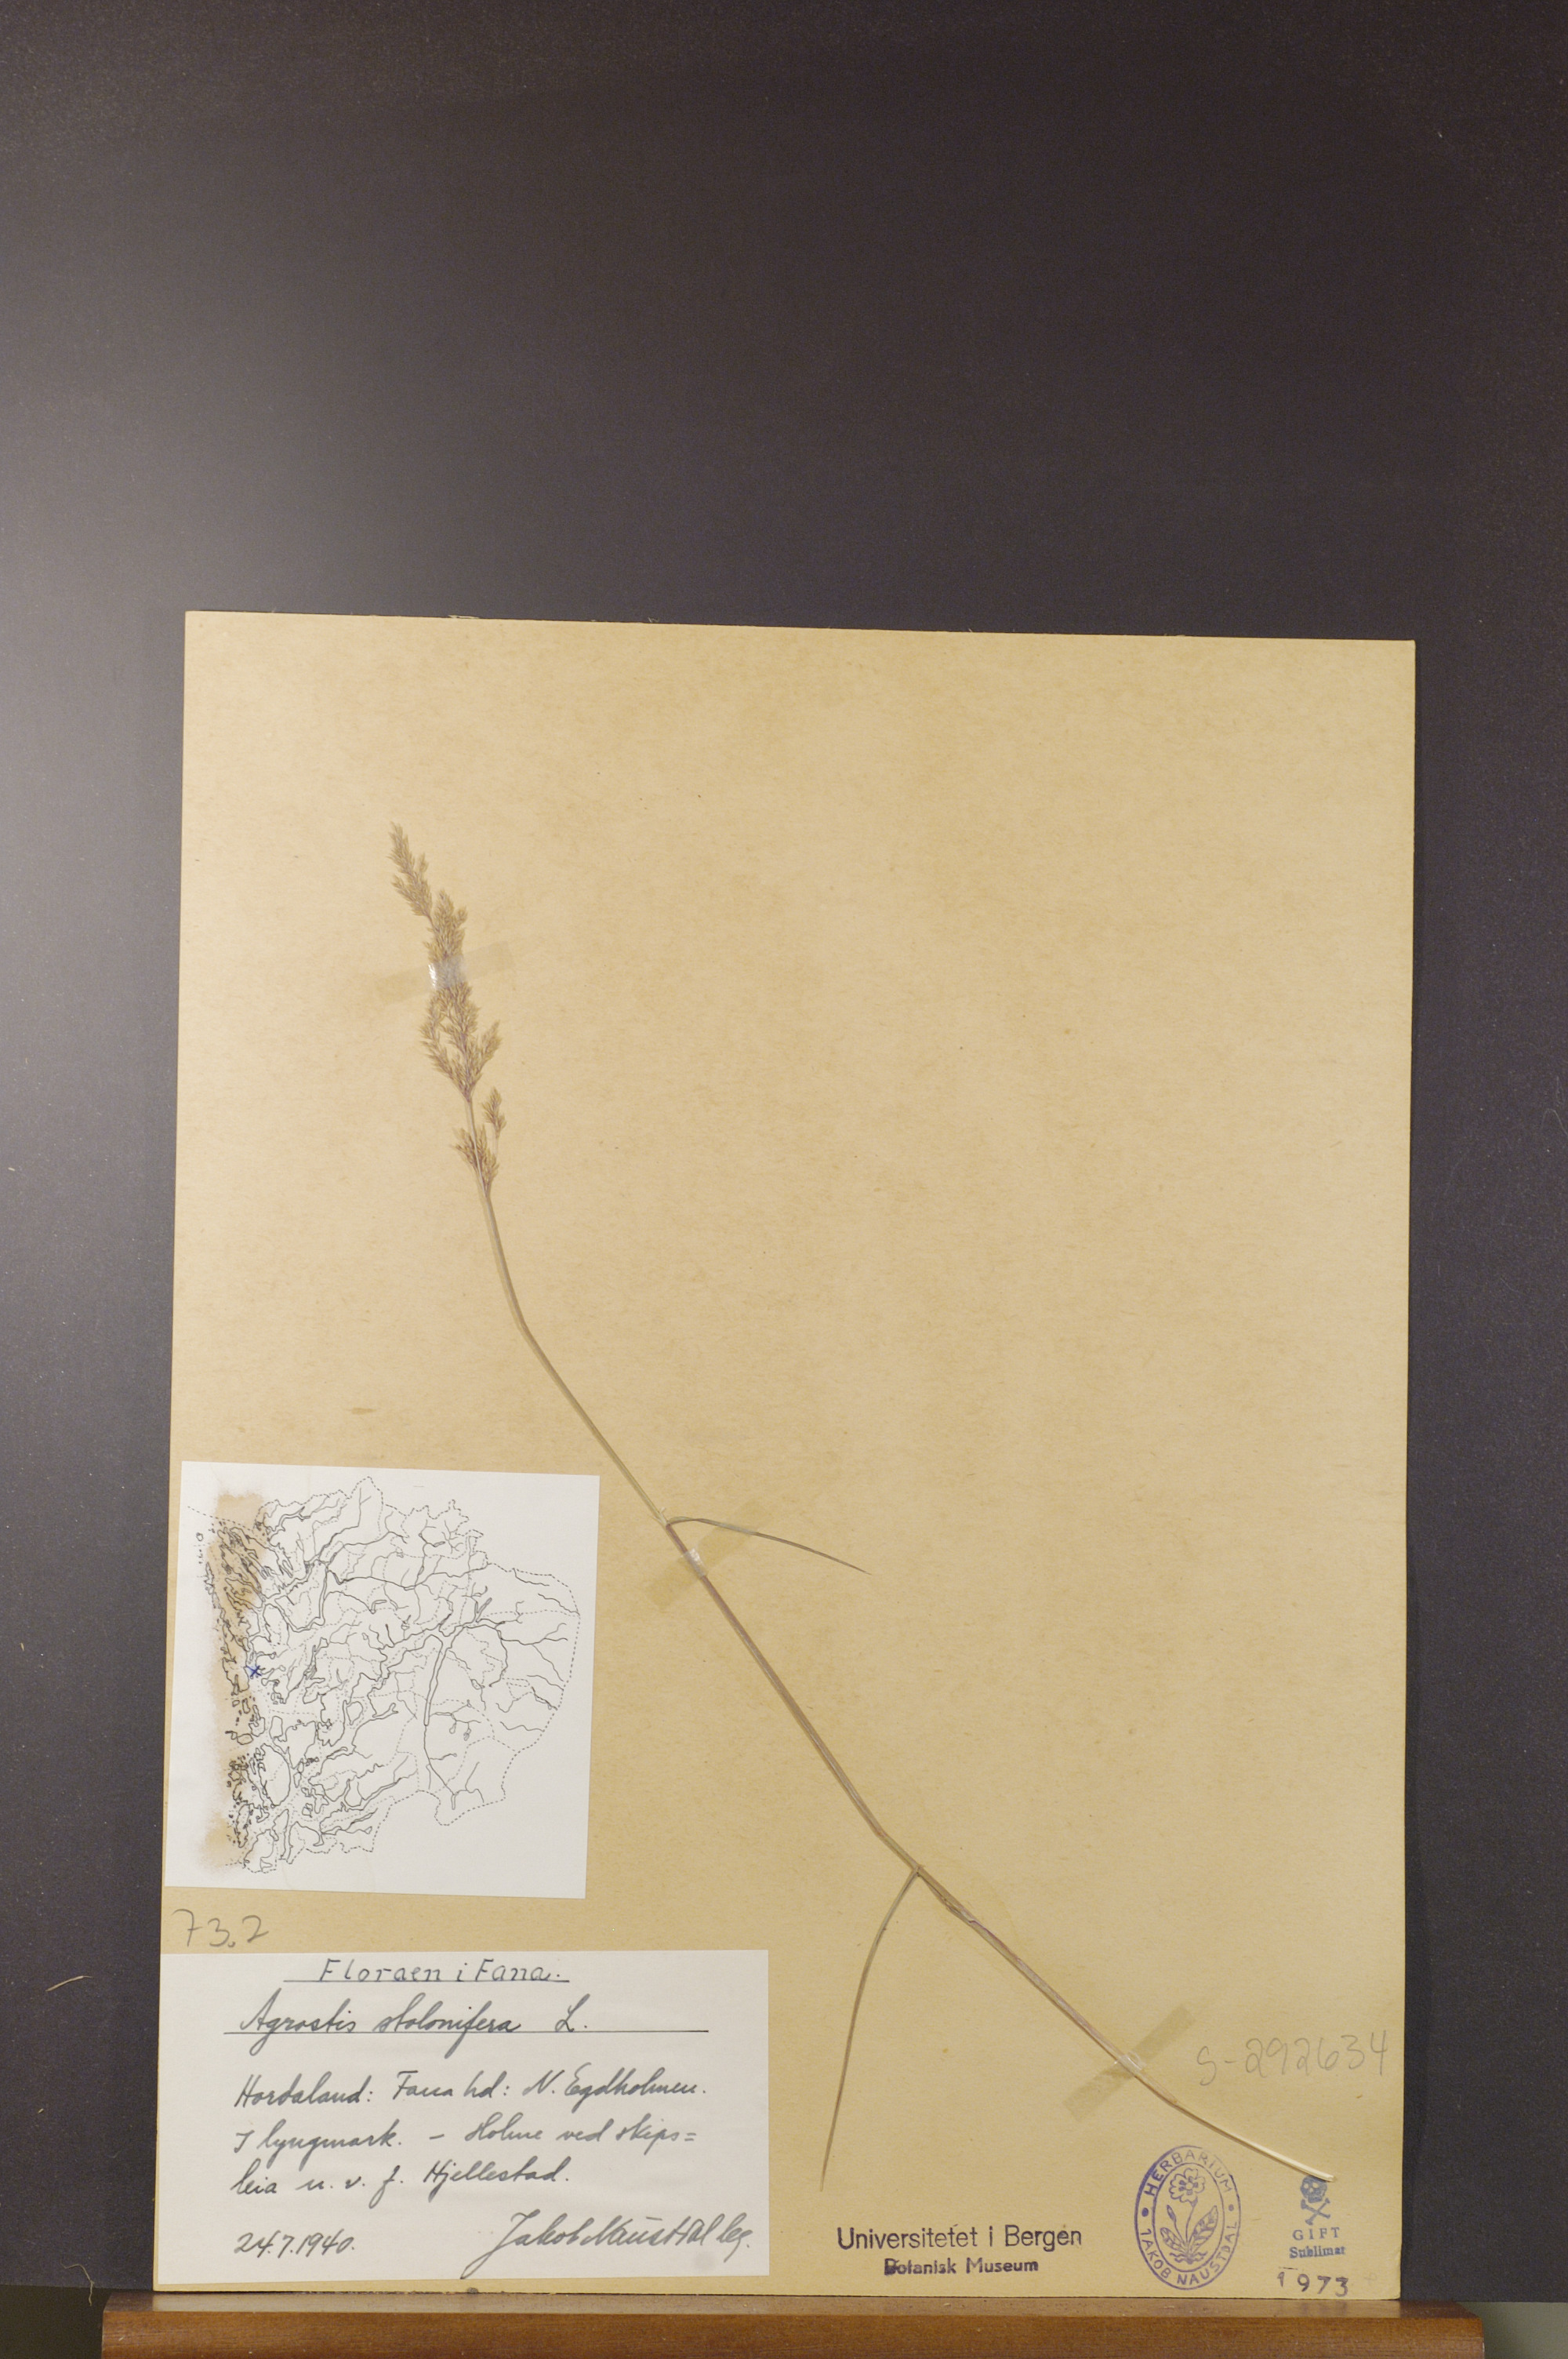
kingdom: Plantae
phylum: Tracheophyta
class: Liliopsida
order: Poales
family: Poaceae
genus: Agrostis
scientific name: Agrostis stolonifera
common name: Creeping bentgrass
